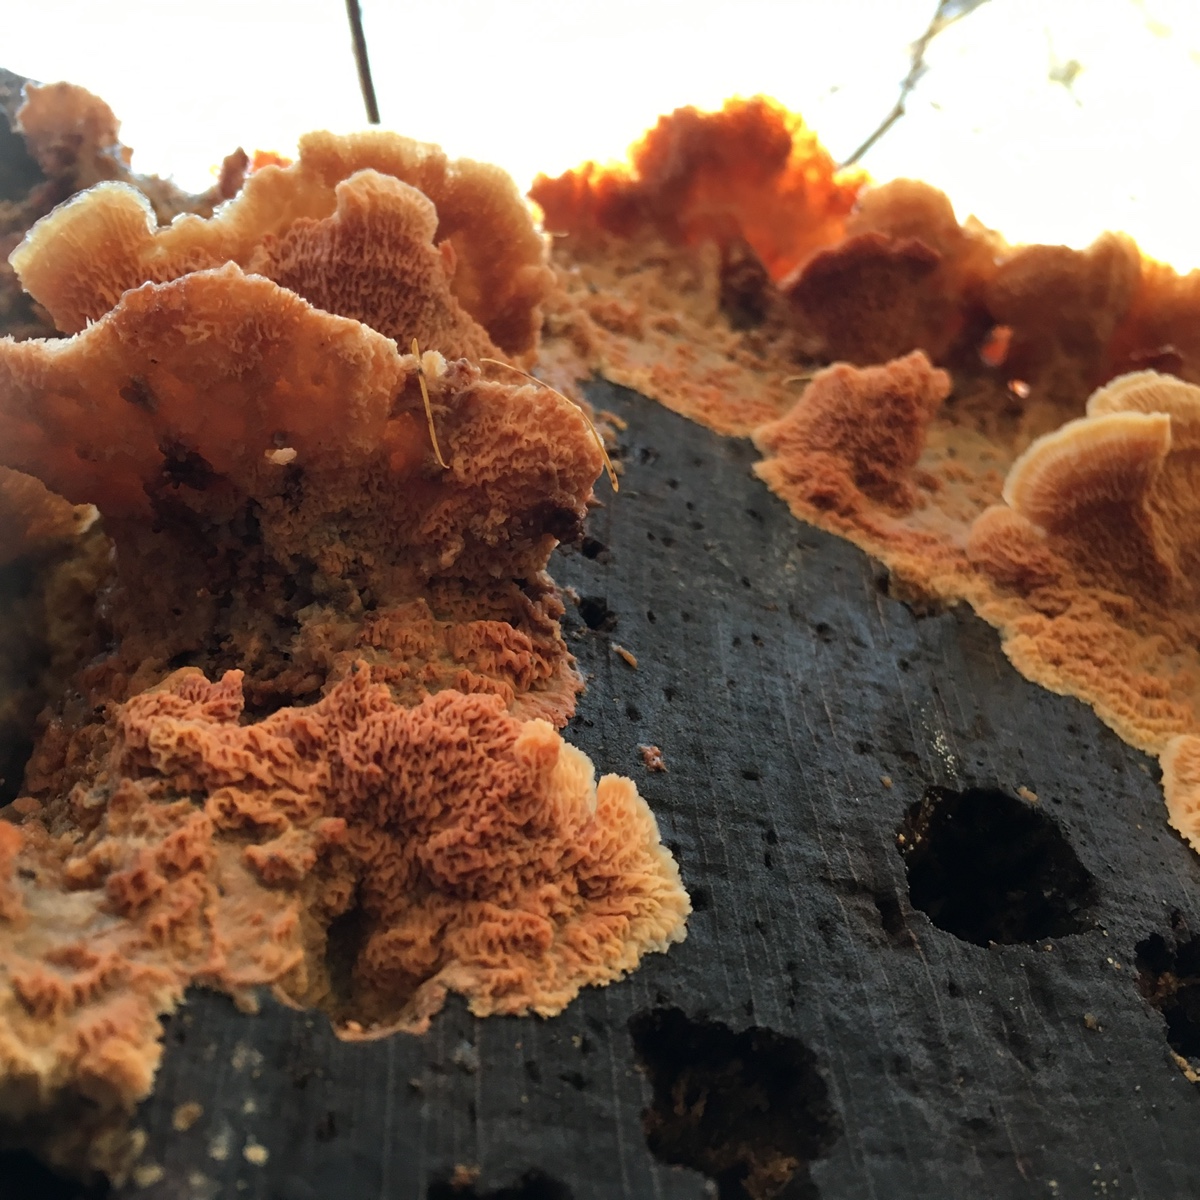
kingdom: Fungi
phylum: Basidiomycota
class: Agaricomycetes
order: Polyporales
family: Meruliaceae
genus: Phlebia
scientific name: Phlebia tremellosa
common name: bævrende åresvamp
